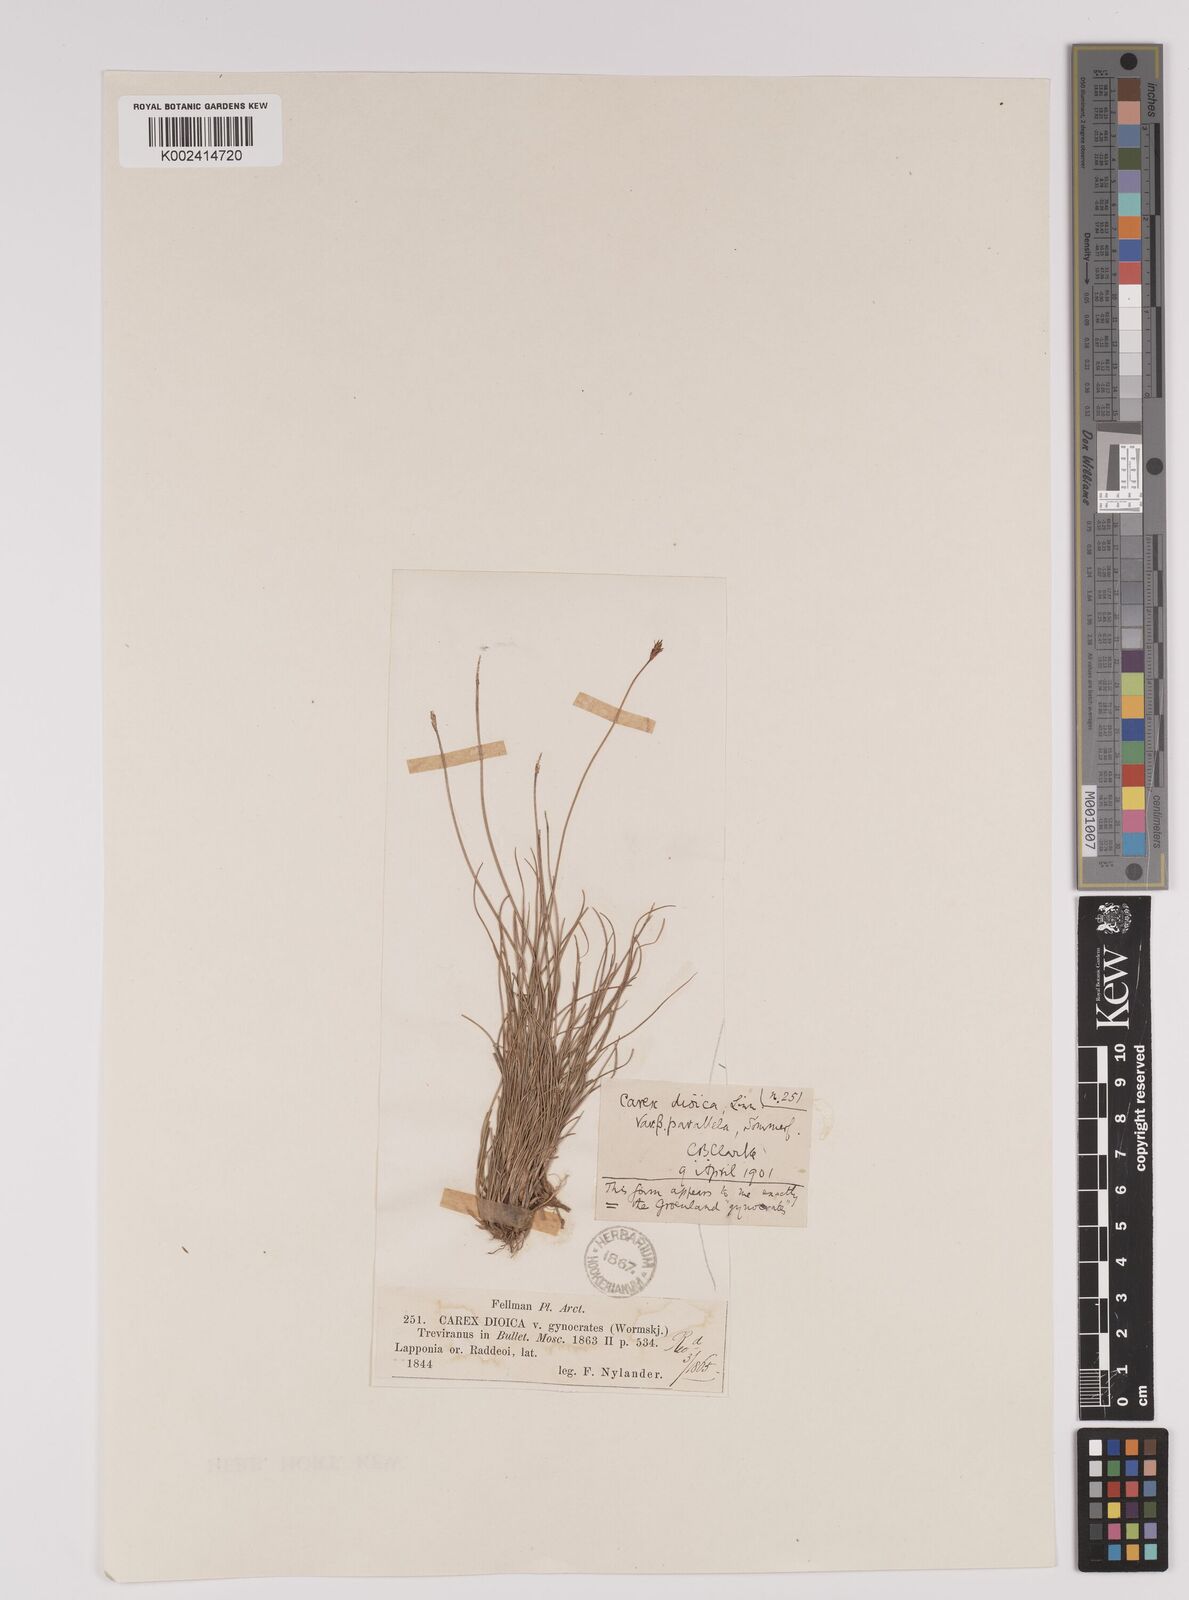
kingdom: Plantae
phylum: Tracheophyta
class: Liliopsida
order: Poales
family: Cyperaceae
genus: Carex
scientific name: Carex parallela
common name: Parallel sedge
